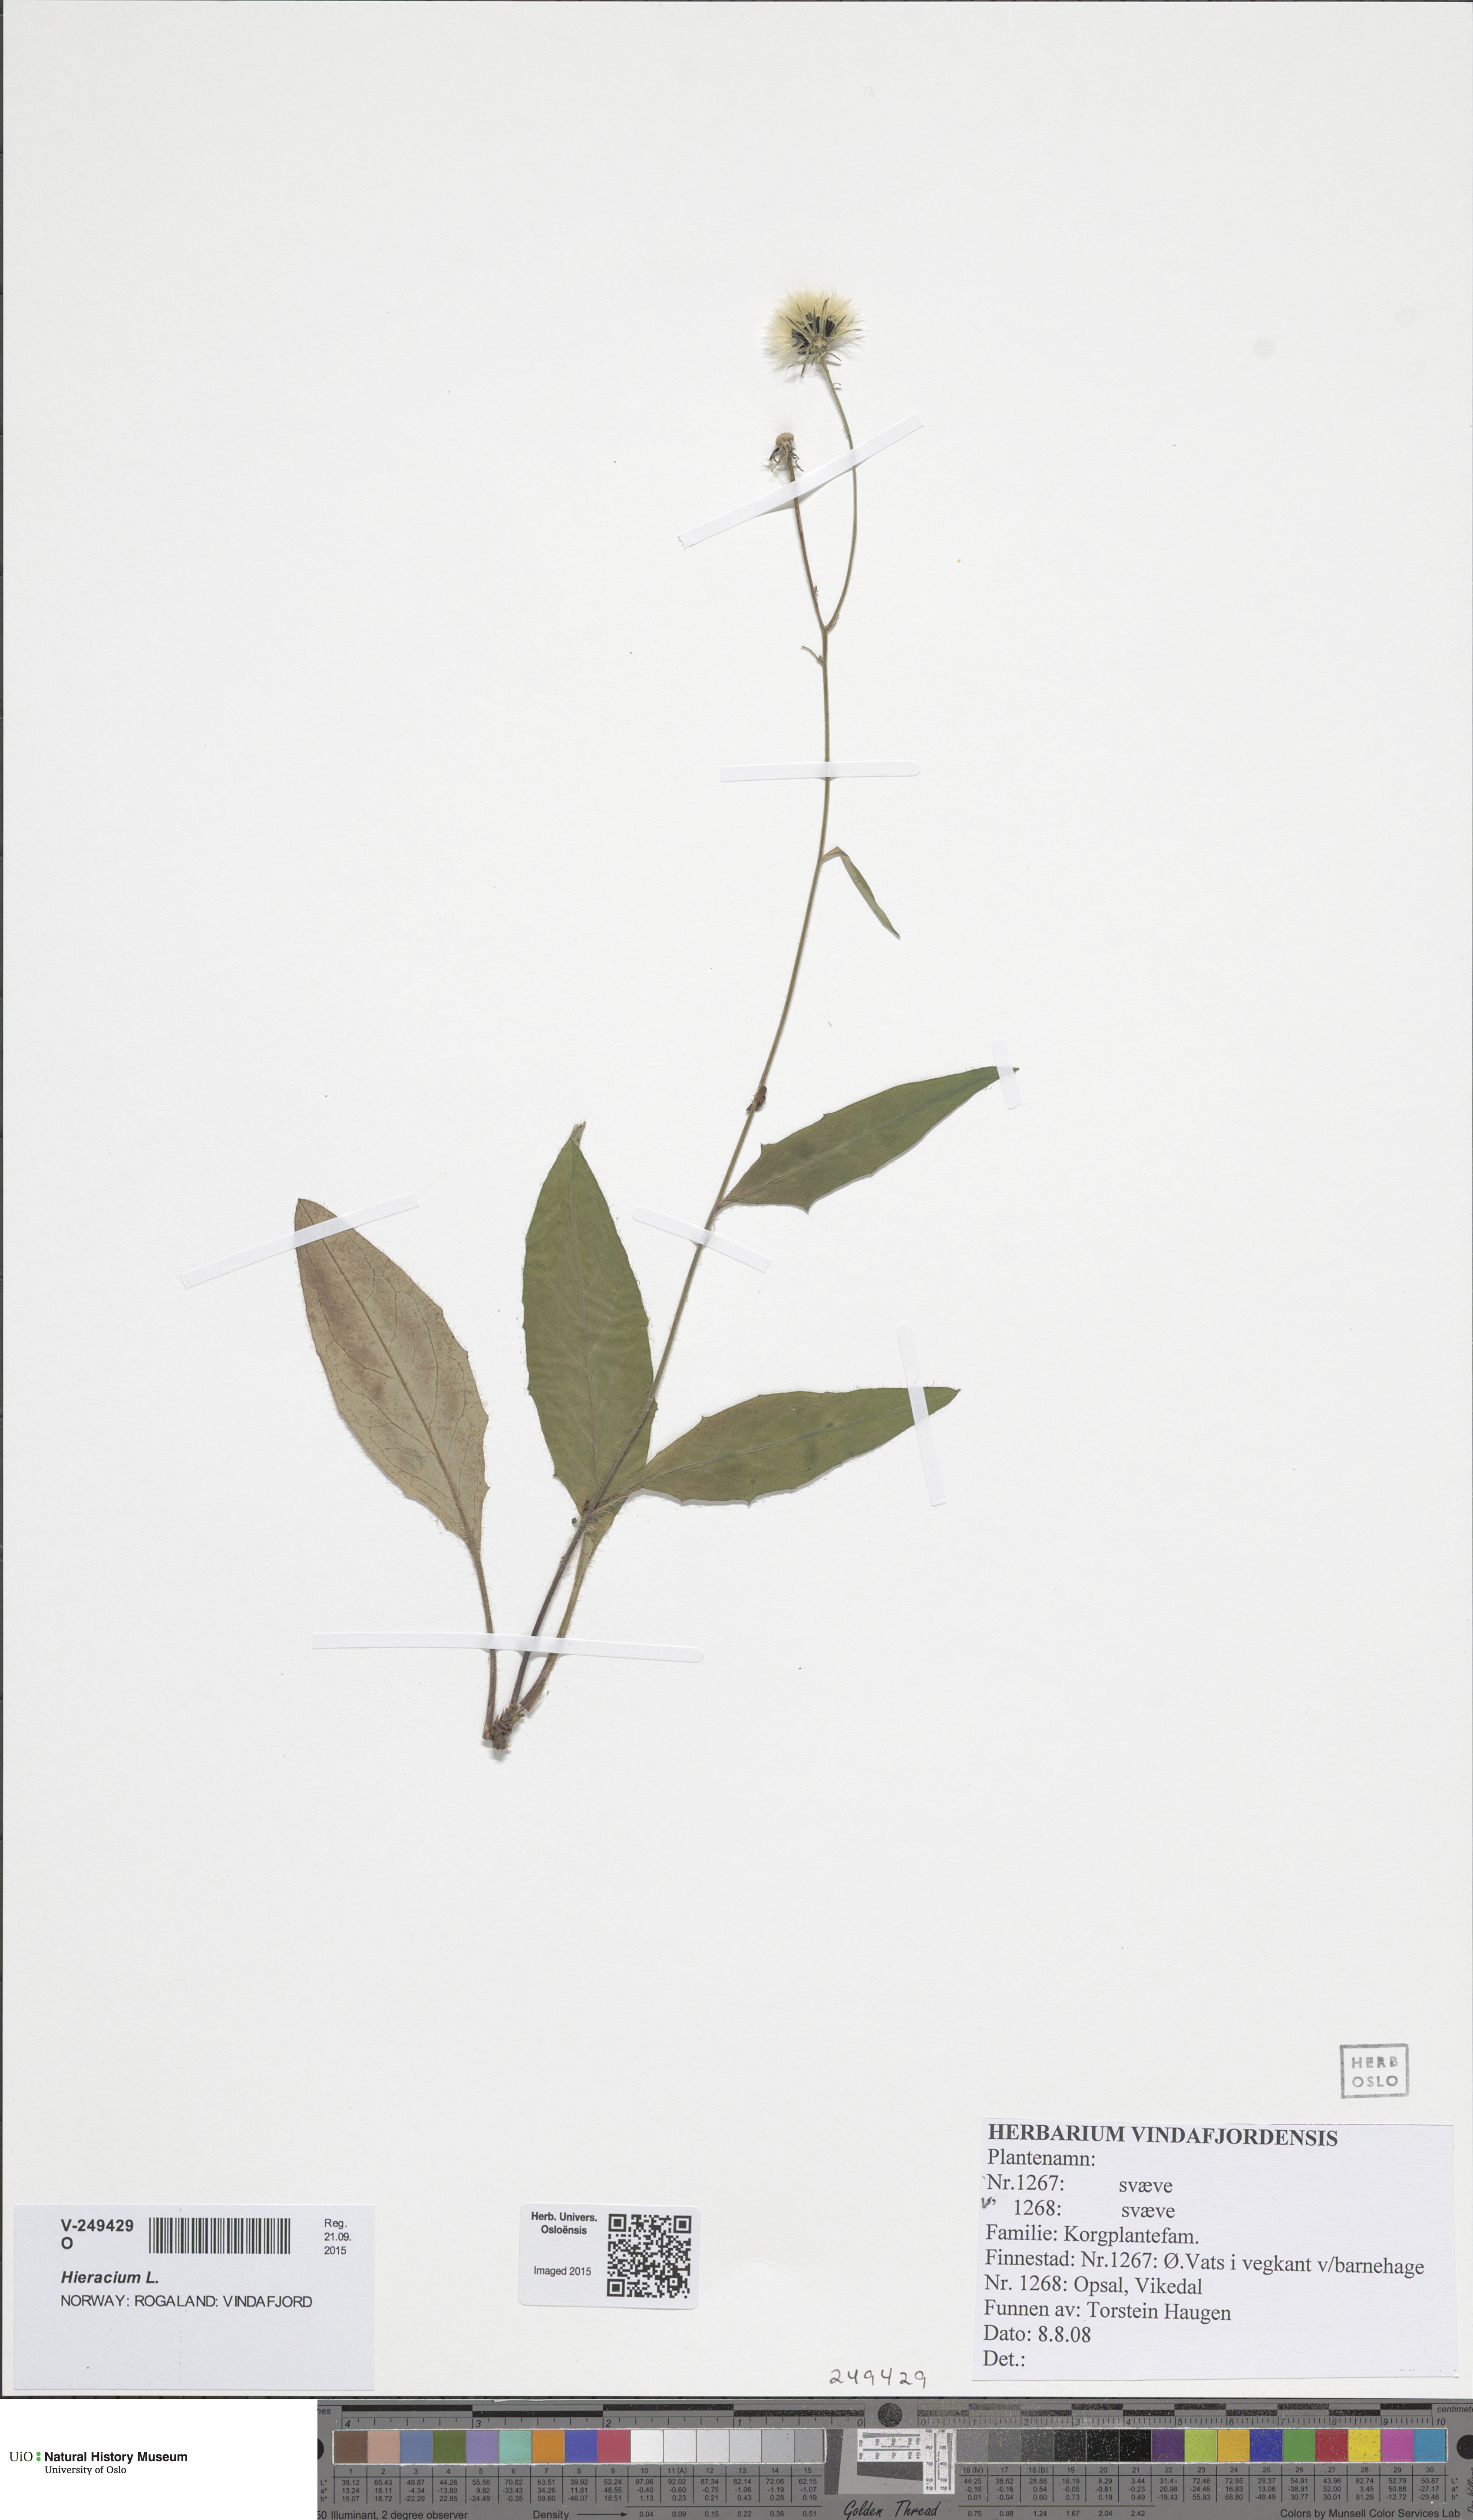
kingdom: Plantae
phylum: Tracheophyta
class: Magnoliopsida
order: Asterales
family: Asteraceae
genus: Hieracium
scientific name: Hieracium
